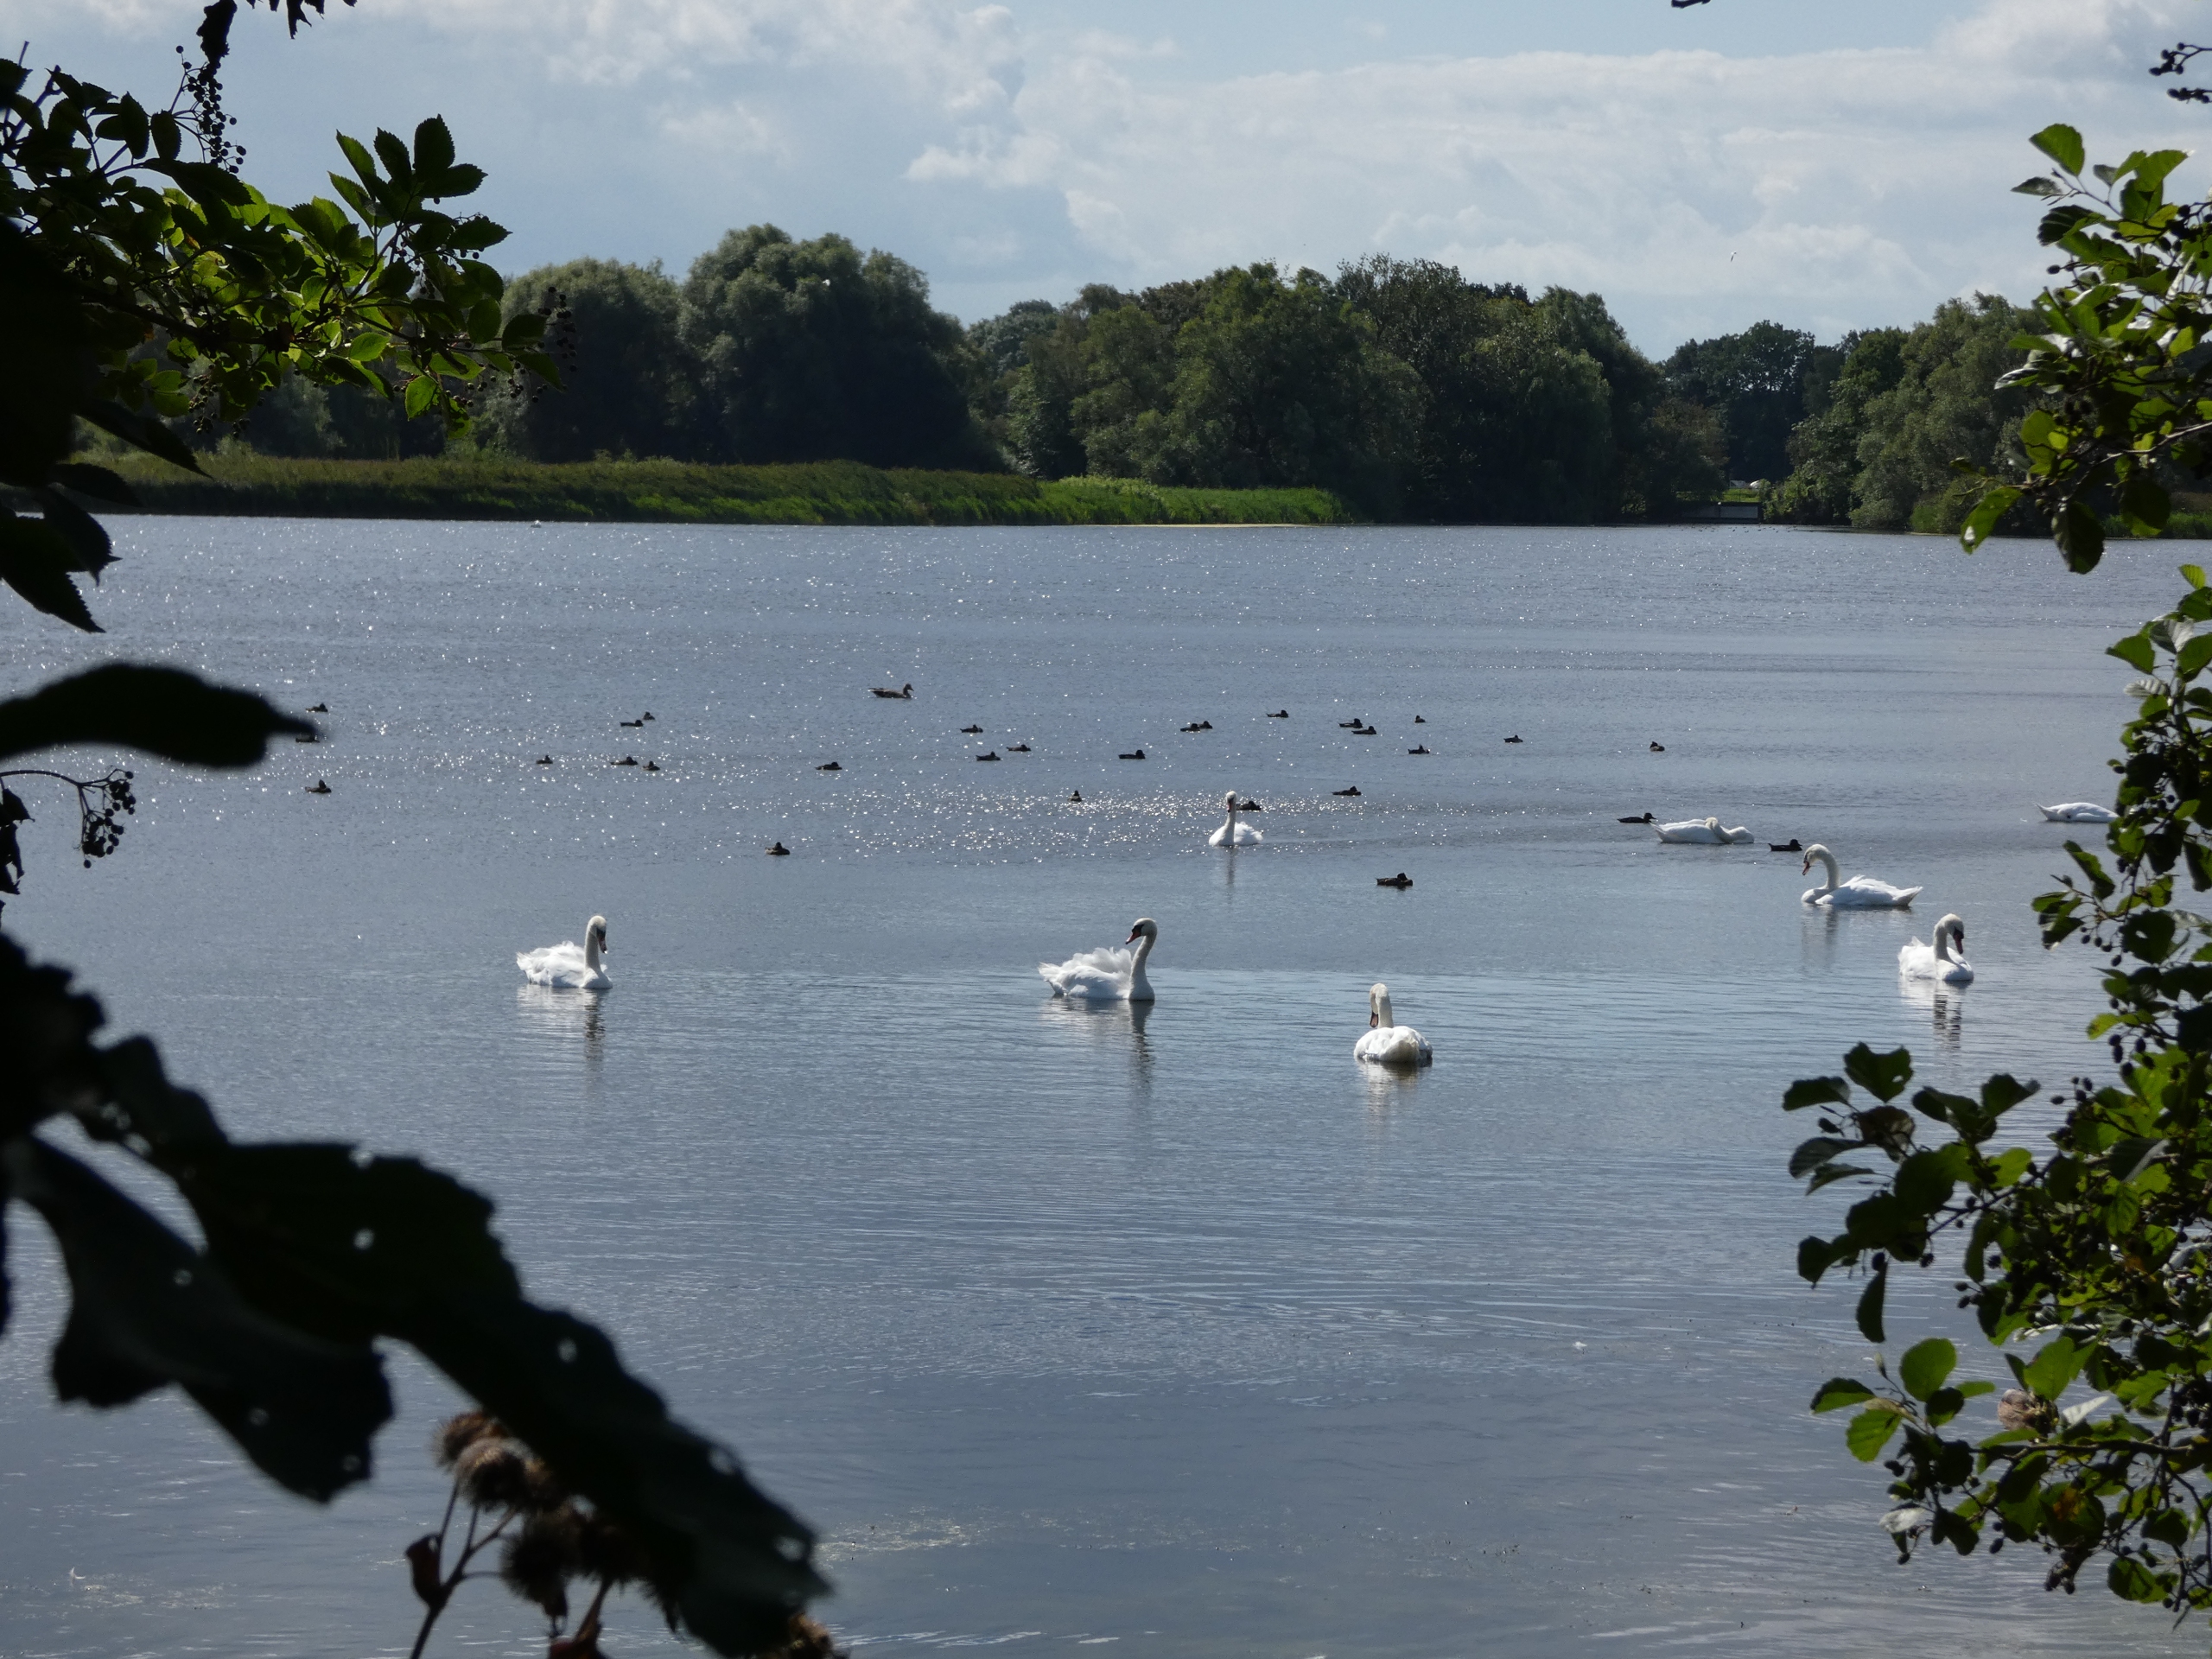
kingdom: Animalia
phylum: Chordata
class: Aves
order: Anseriformes
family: Anatidae
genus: Cygnus
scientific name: Cygnus olor
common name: Knopsvane
